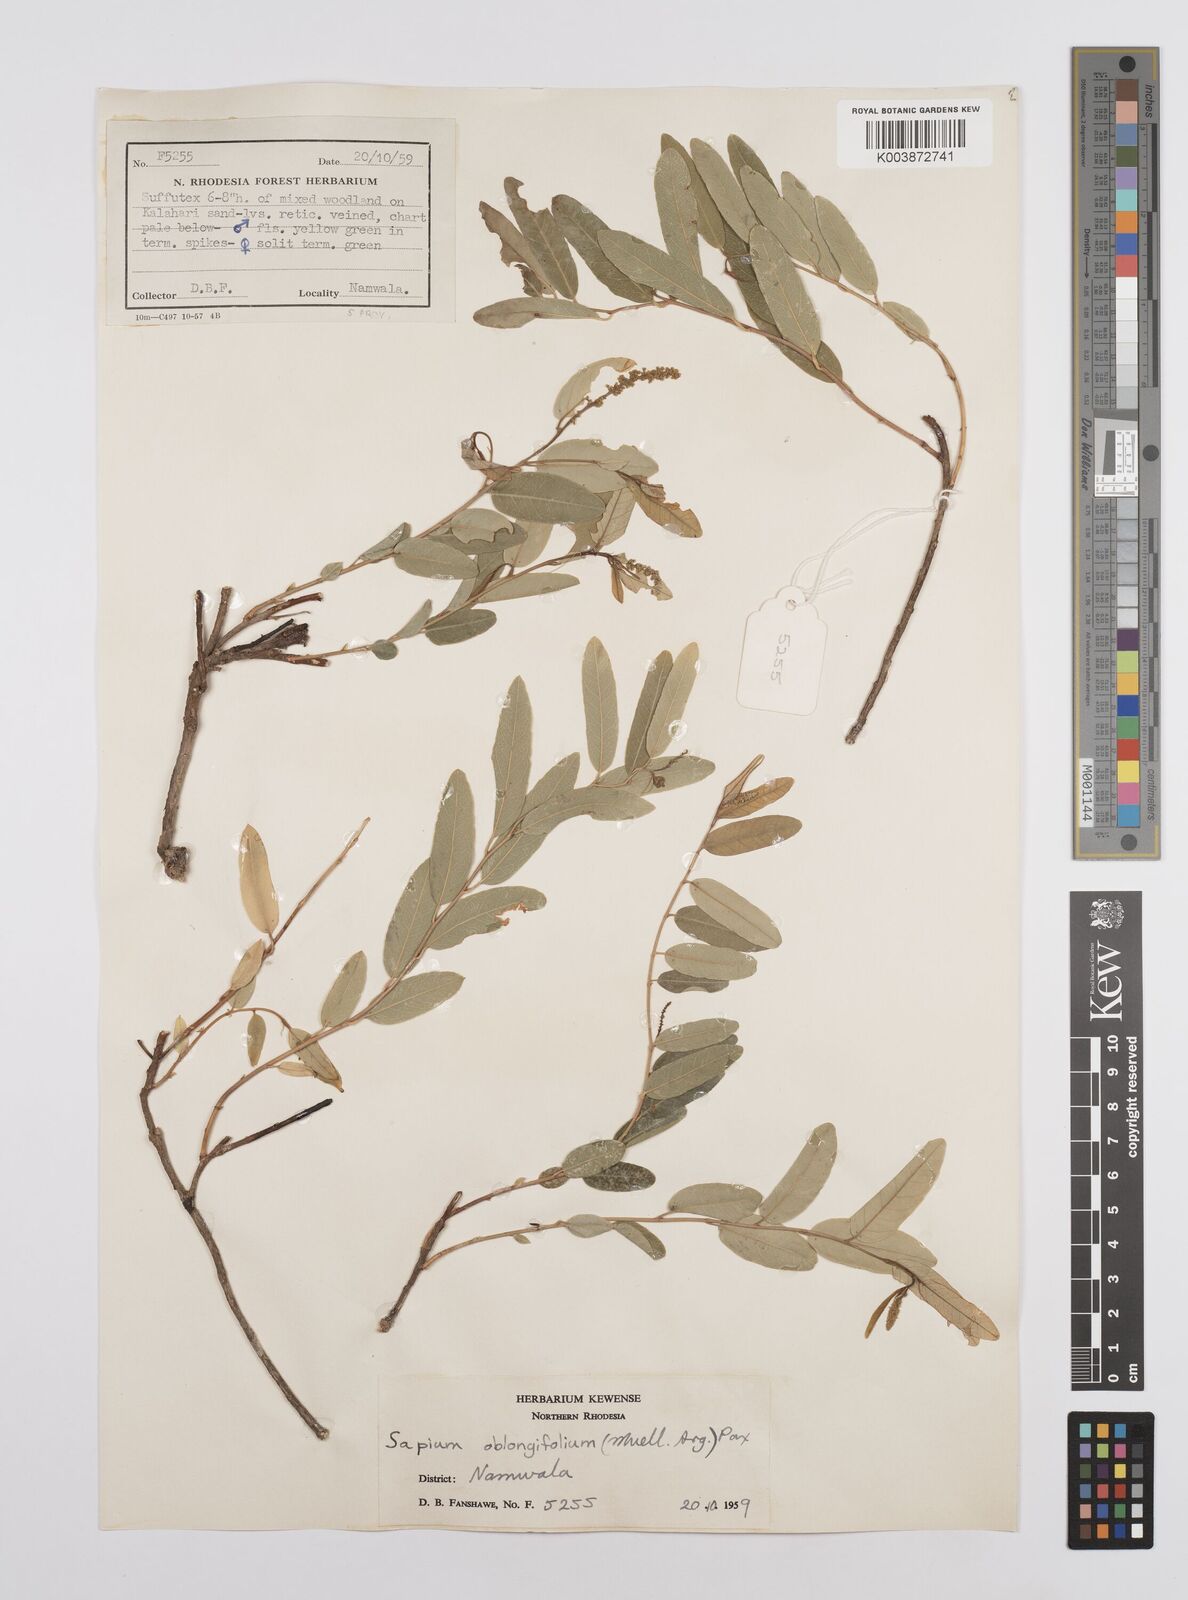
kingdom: Plantae
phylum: Tracheophyta
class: Magnoliopsida
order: Malpighiales
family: Euphorbiaceae
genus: Sclerocroton
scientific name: Sclerocroton oblongifolius
